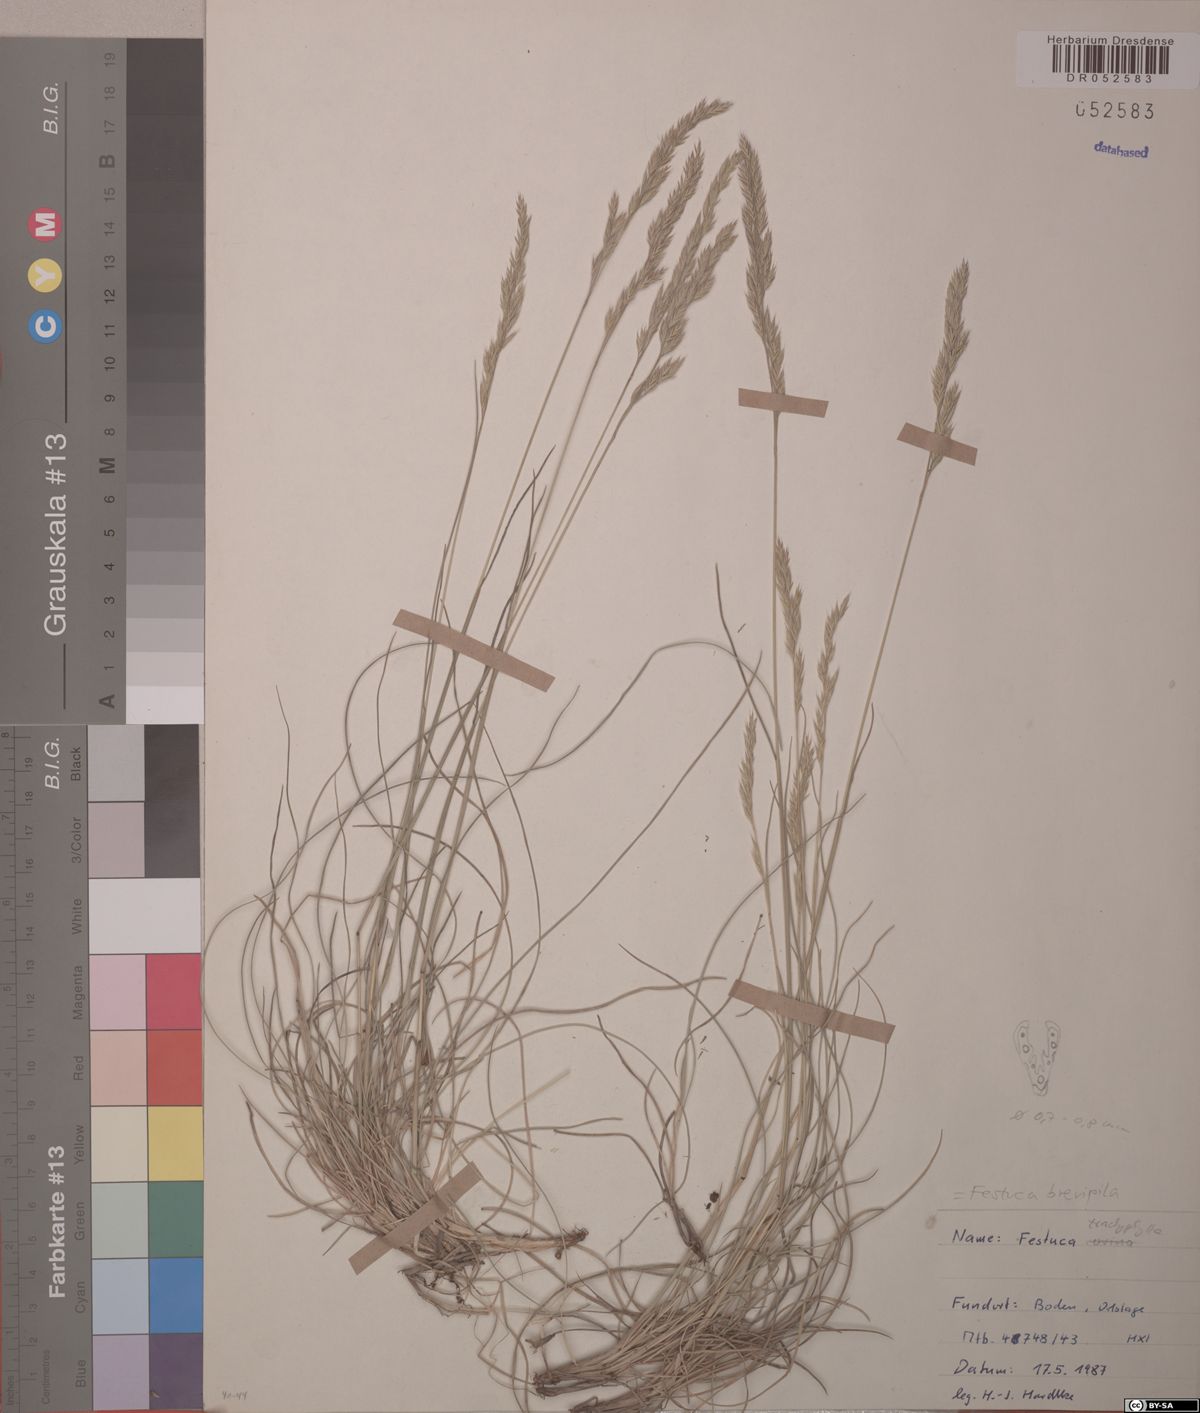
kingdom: Plantae
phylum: Tracheophyta
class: Liliopsida
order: Poales
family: Poaceae
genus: Festuca
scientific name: Festuca trachyphylla
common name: Hard fescue
